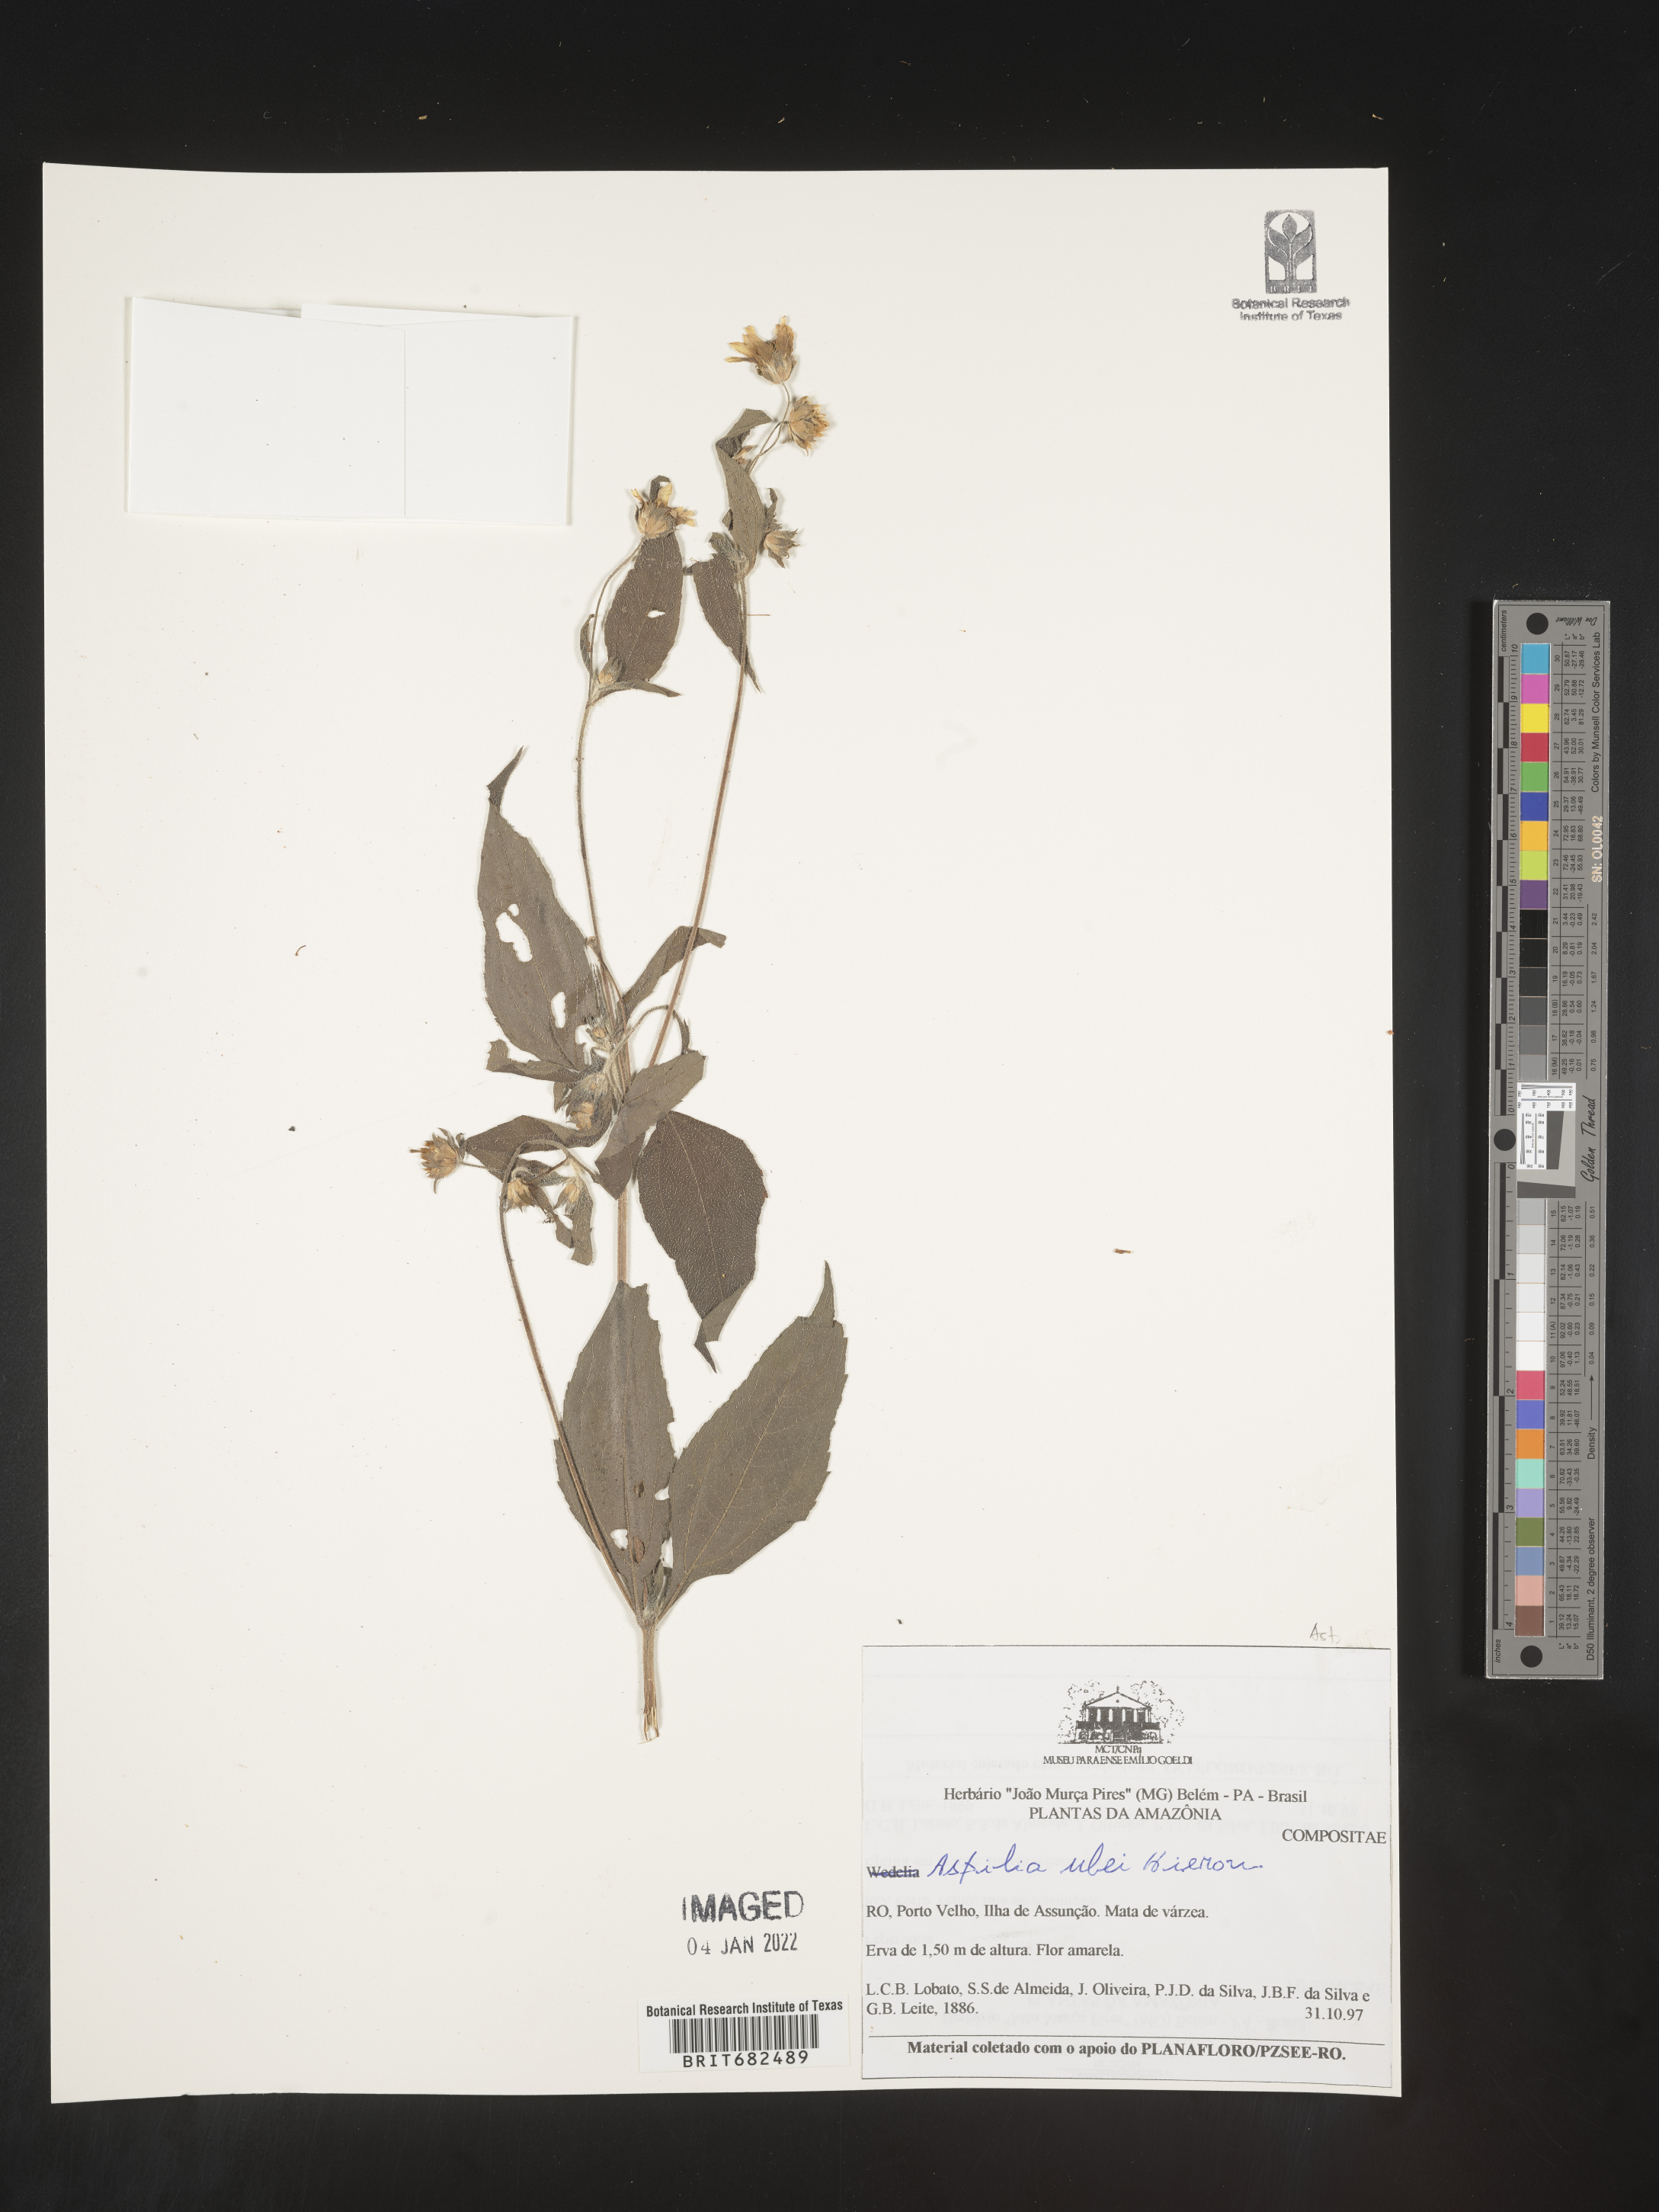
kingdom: Plantae
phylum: Tracheophyta
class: Magnoliopsida
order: Asterales
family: Asteraceae
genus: Aspilia
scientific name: Aspilia
